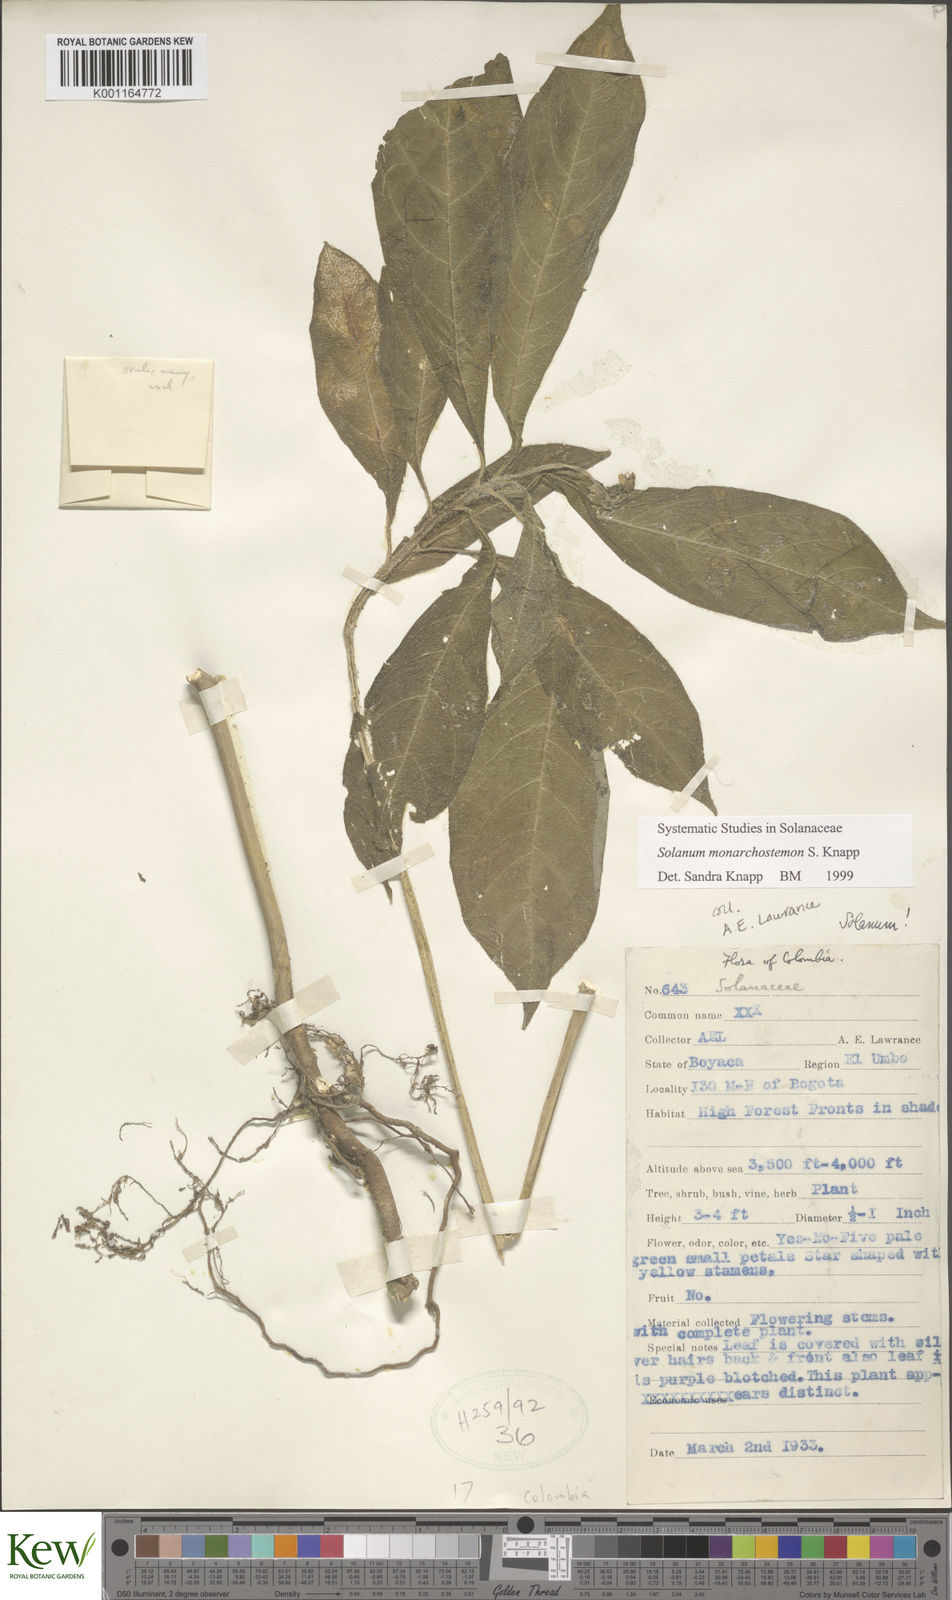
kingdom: Plantae
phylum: Tracheophyta
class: Magnoliopsida
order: Solanales
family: Solanaceae
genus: Solanum
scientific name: Solanum monarchostemon
